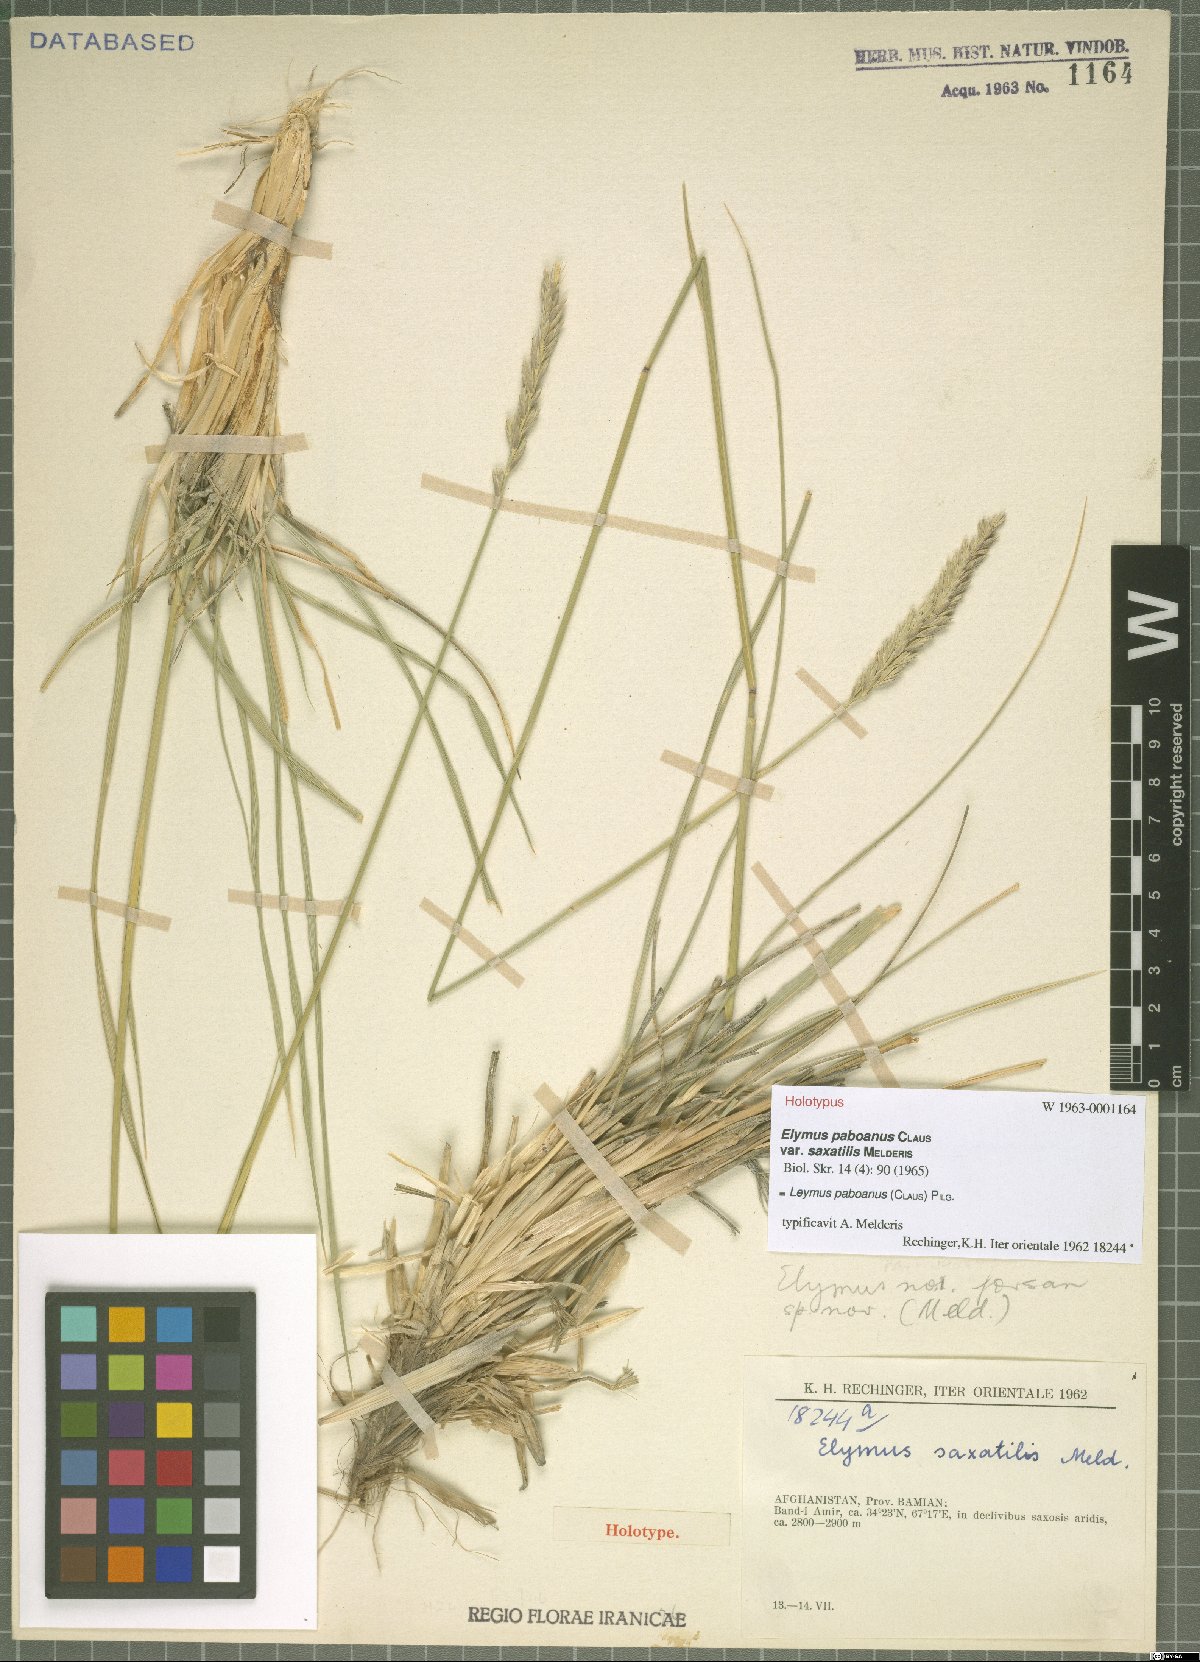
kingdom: Plantae
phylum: Tracheophyta
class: Liliopsida
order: Poales
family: Poaceae
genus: Leymus
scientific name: Leymus paboanus
